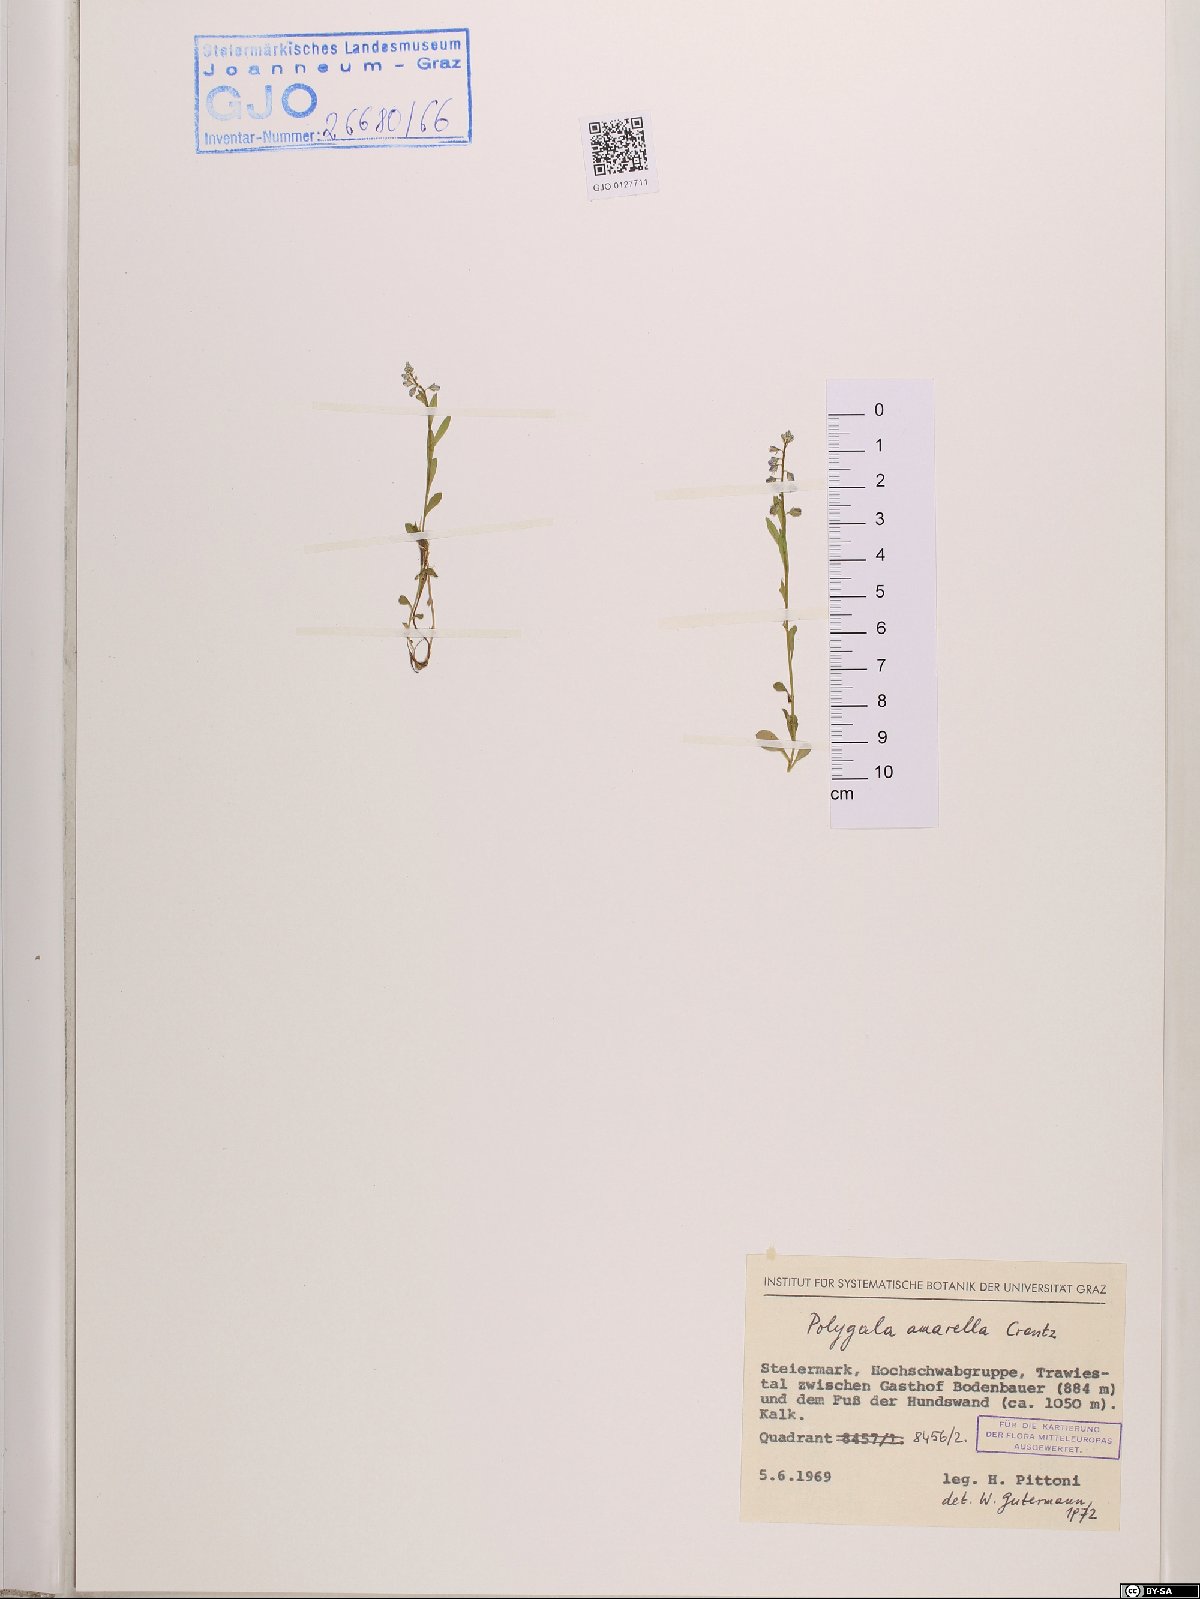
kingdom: Plantae
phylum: Tracheophyta
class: Magnoliopsida
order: Fabales
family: Polygalaceae
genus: Polygala
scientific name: Polygala amarella
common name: Dwarf milkwort
